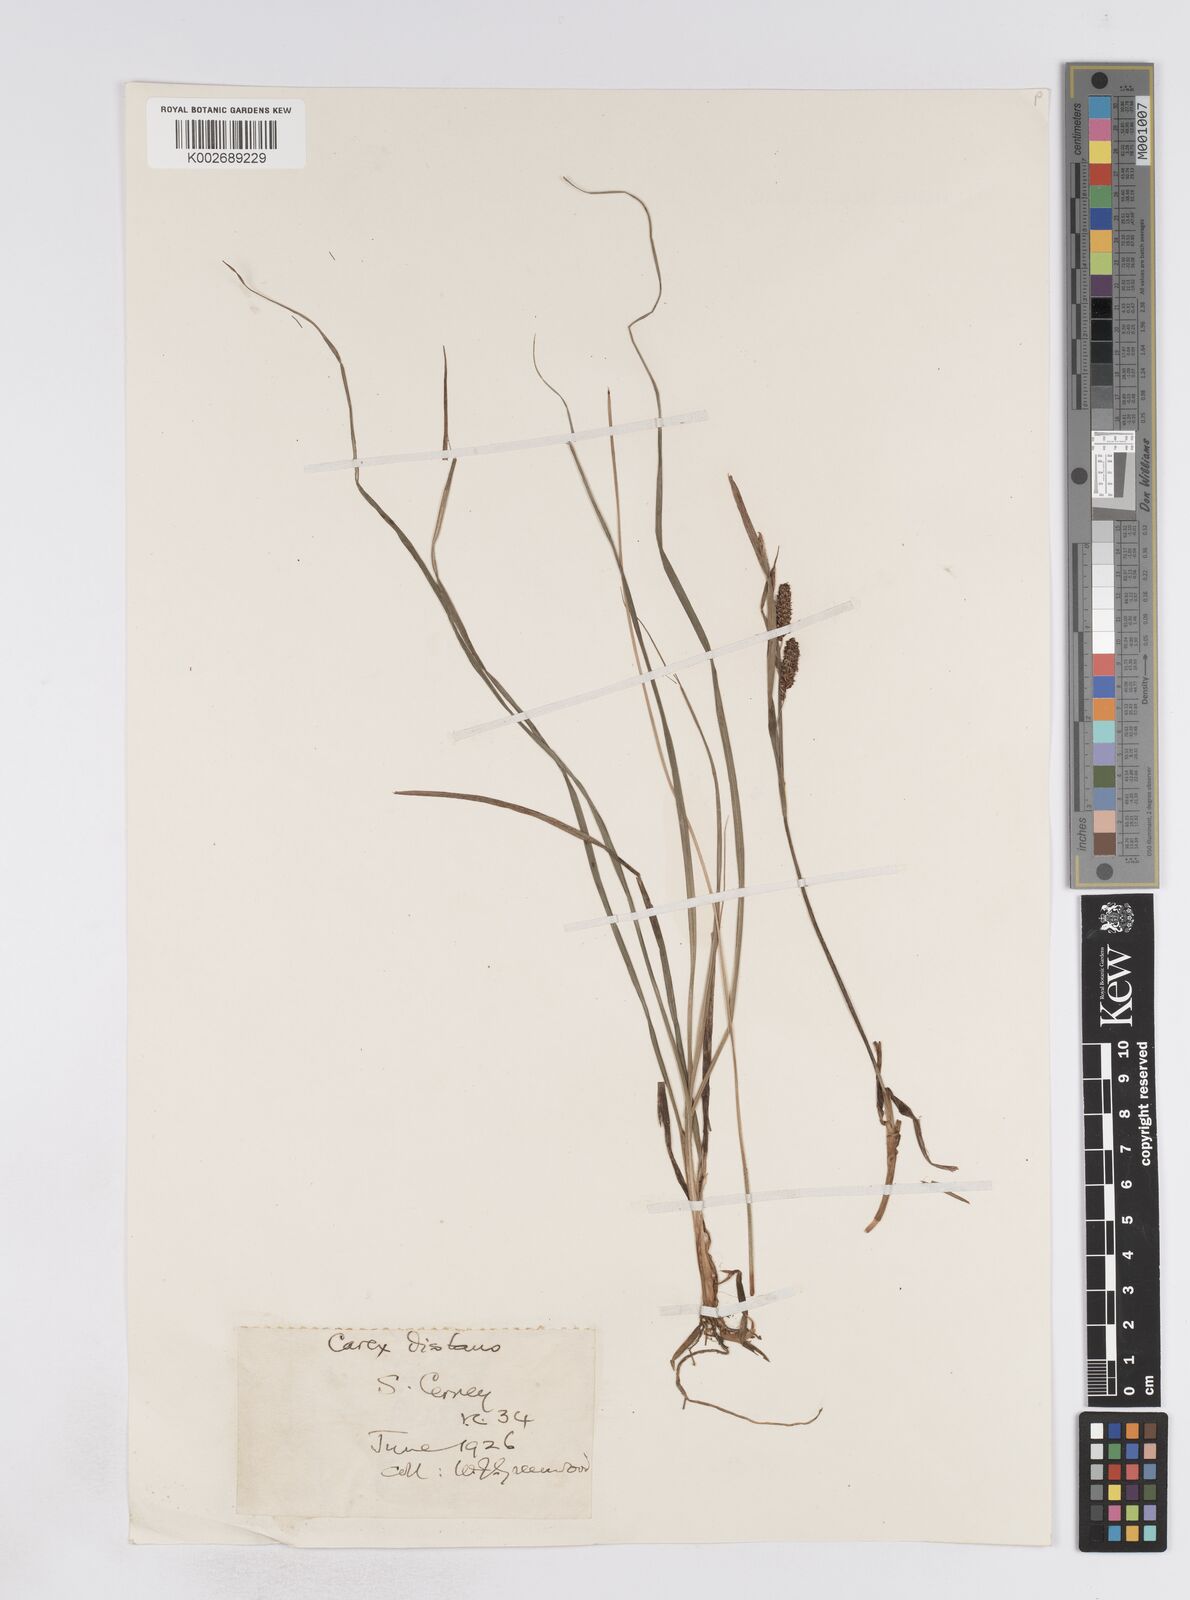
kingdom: Plantae
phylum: Tracheophyta
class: Liliopsida
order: Poales
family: Cyperaceae
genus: Carex
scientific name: Carex flacca
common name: Glaucous sedge
